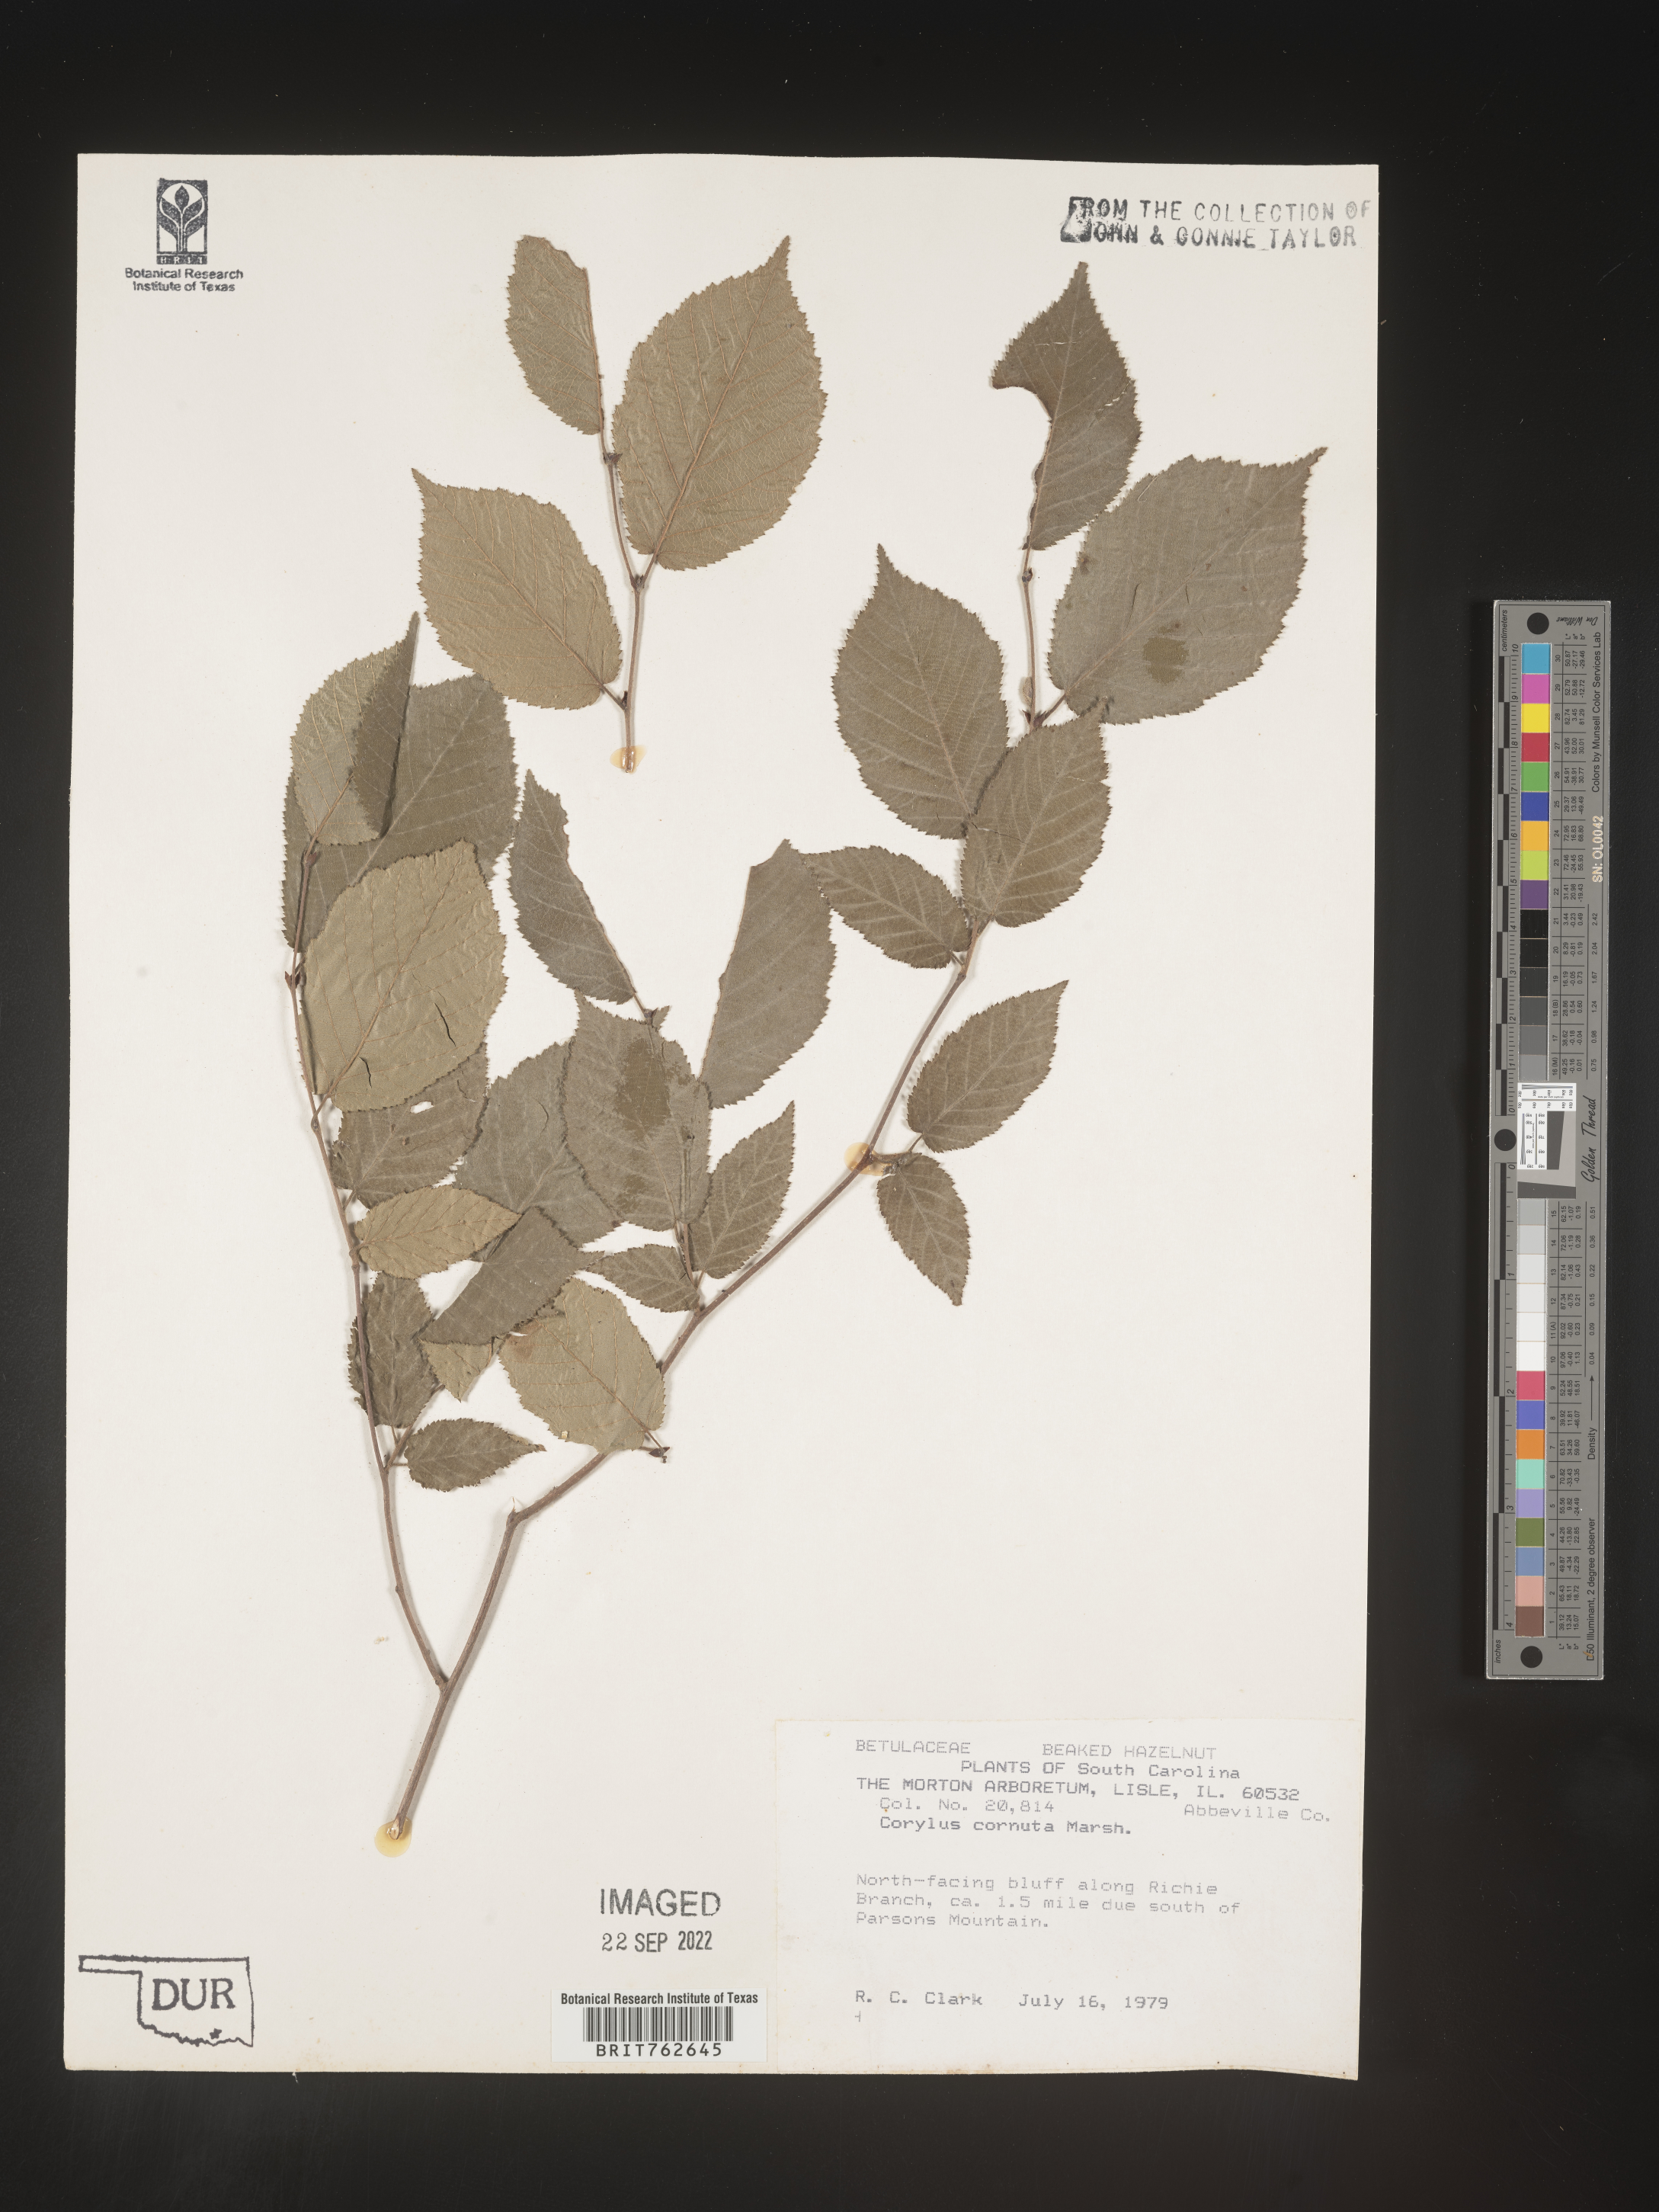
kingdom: Plantae
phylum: Tracheophyta
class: Magnoliopsida
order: Fagales
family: Betulaceae
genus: Corylus
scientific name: Corylus cornuta
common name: Beaked hazel
